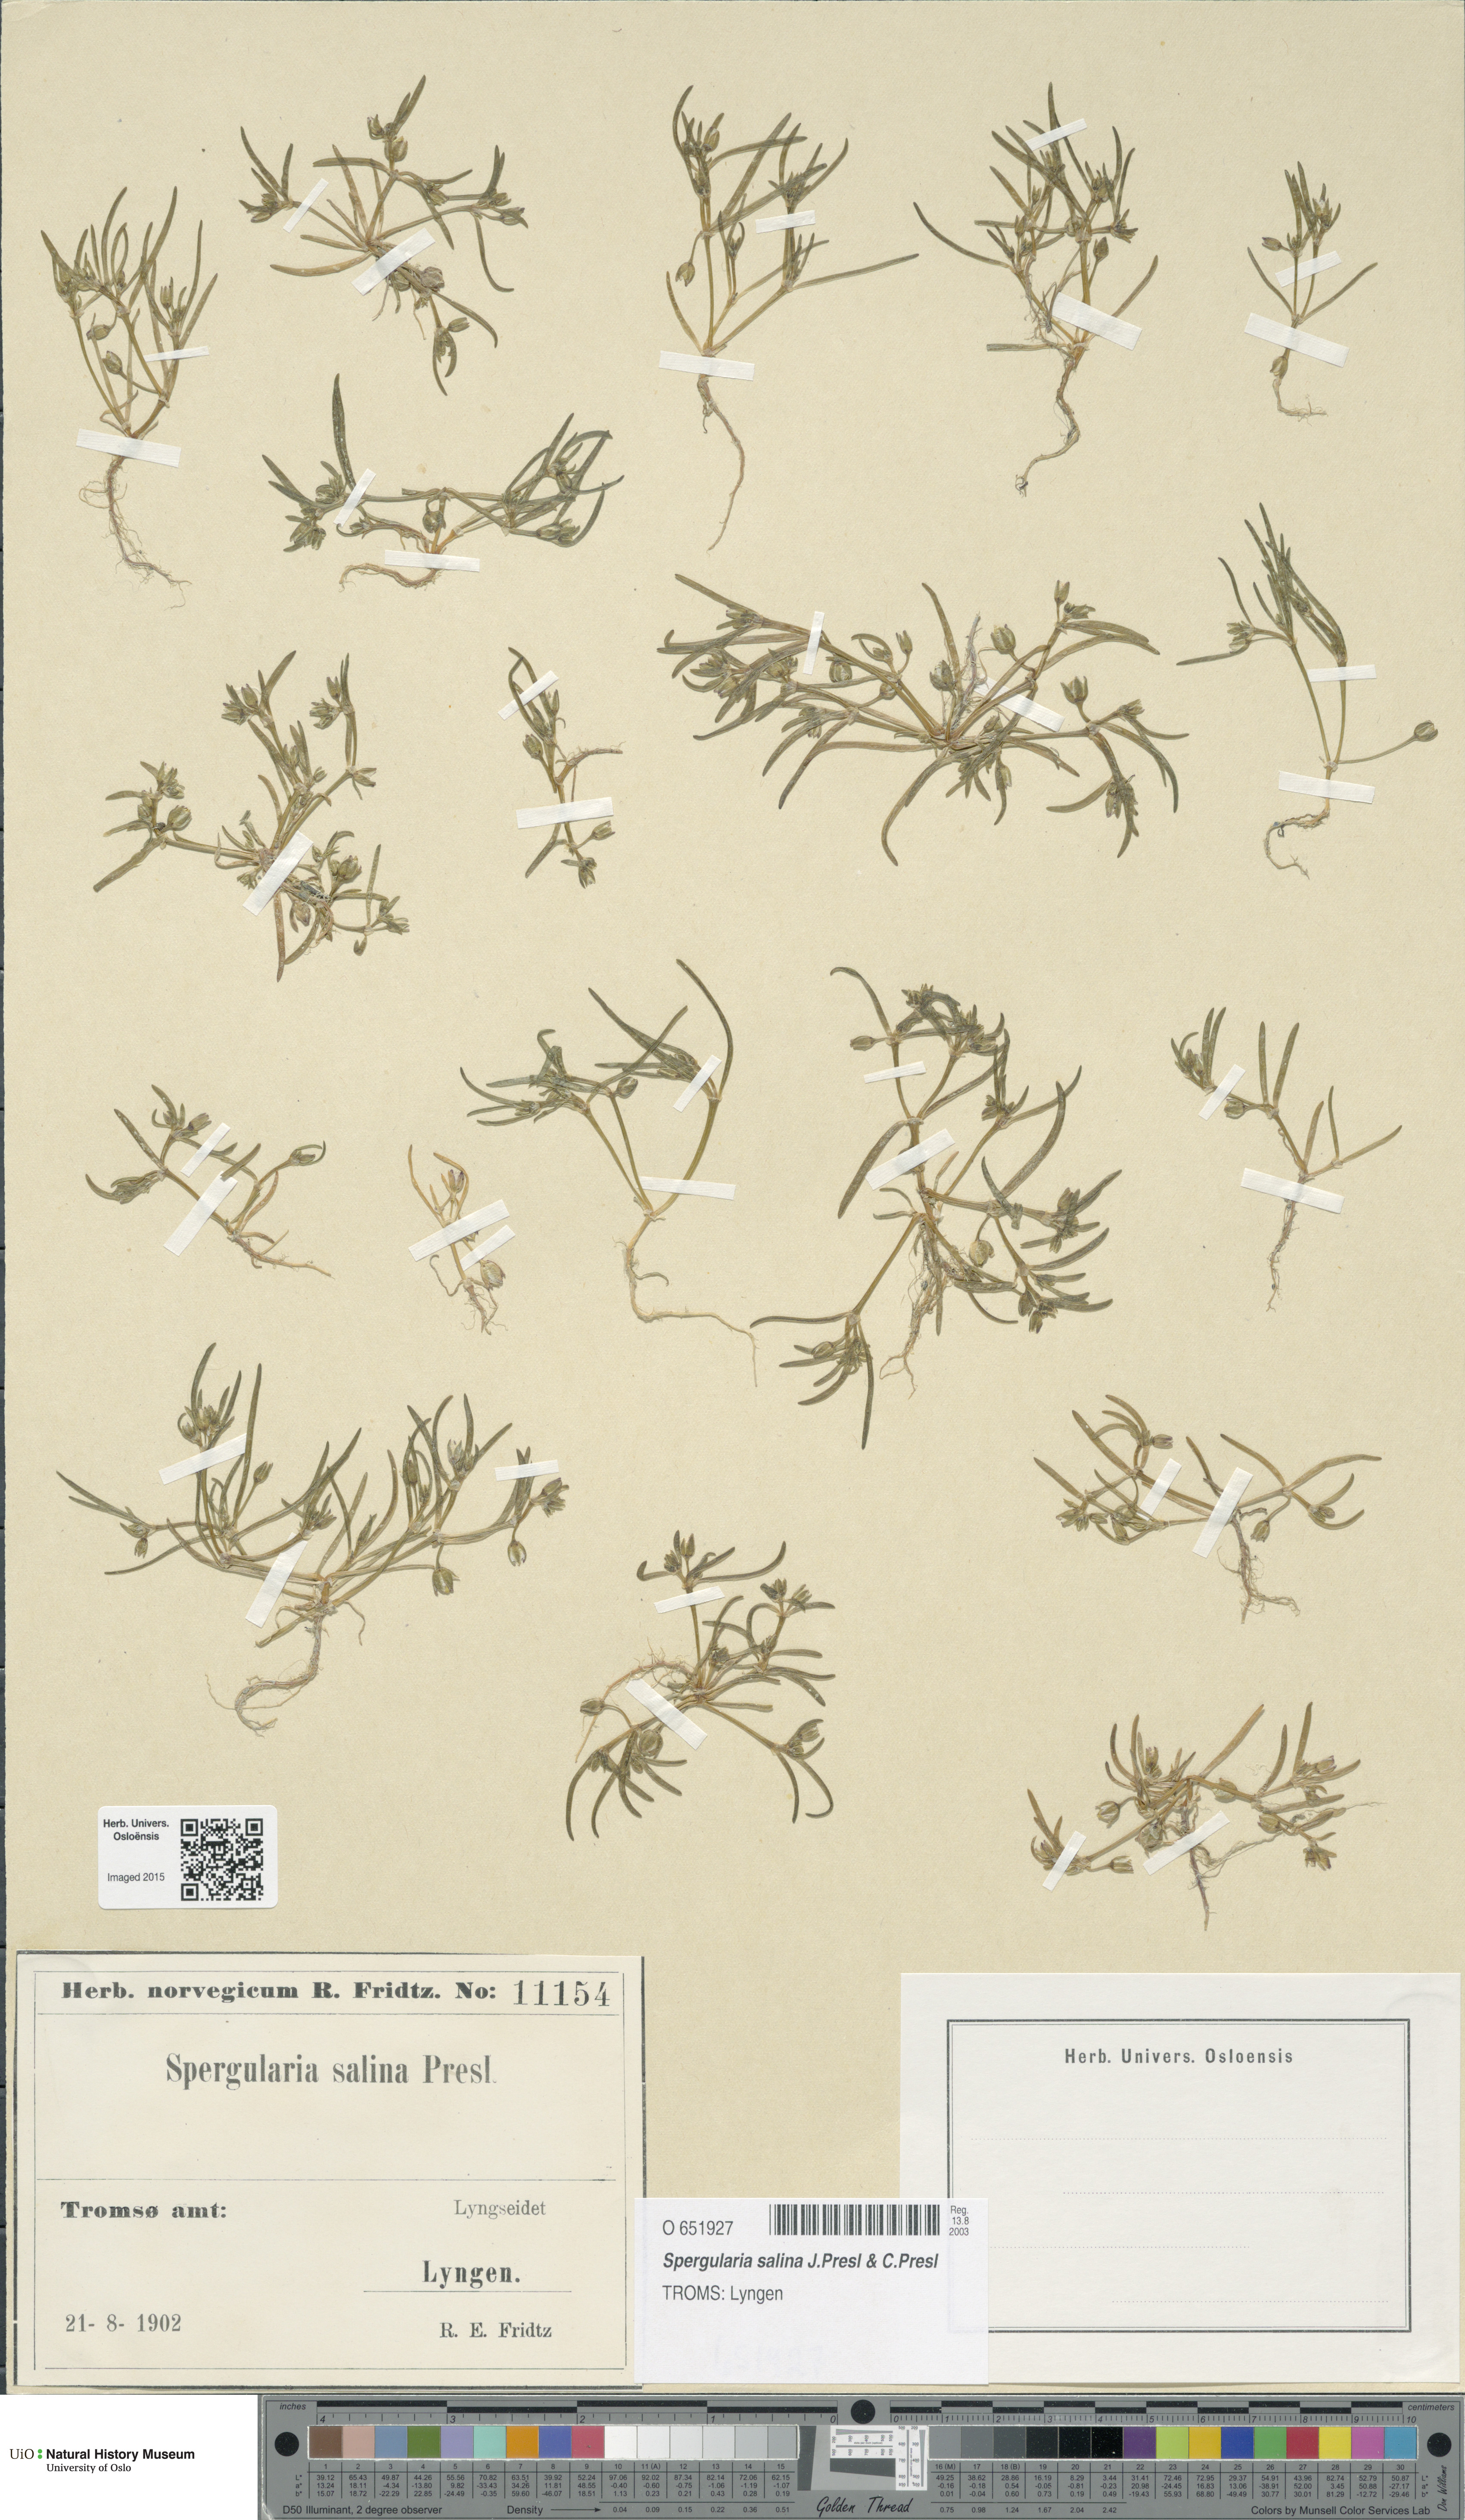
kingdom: Plantae
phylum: Tracheophyta
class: Magnoliopsida
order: Caryophyllales
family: Caryophyllaceae
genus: Spergularia
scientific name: Spergularia marina
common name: Lesser sea-spurrey
